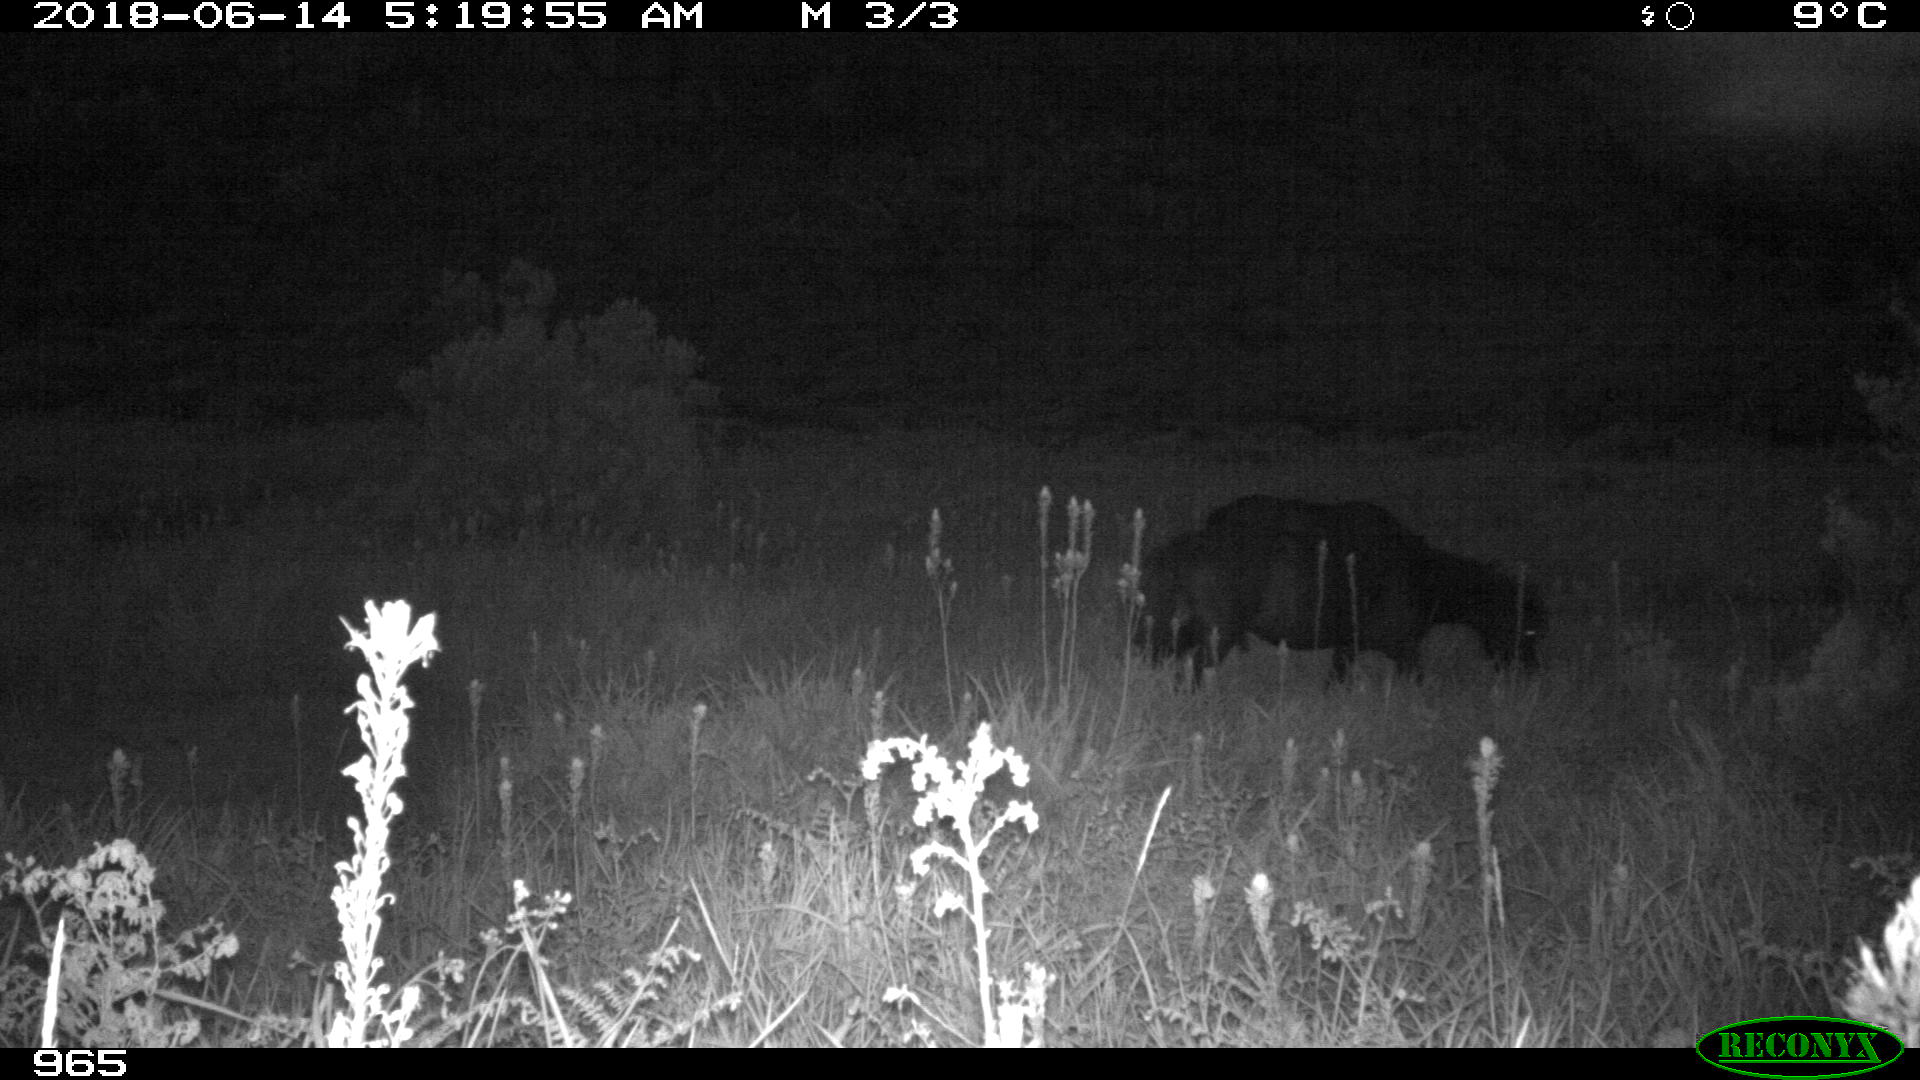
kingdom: Animalia
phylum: Chordata
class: Mammalia
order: Perissodactyla
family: Equidae
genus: Equus
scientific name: Equus caballus
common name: Horse
